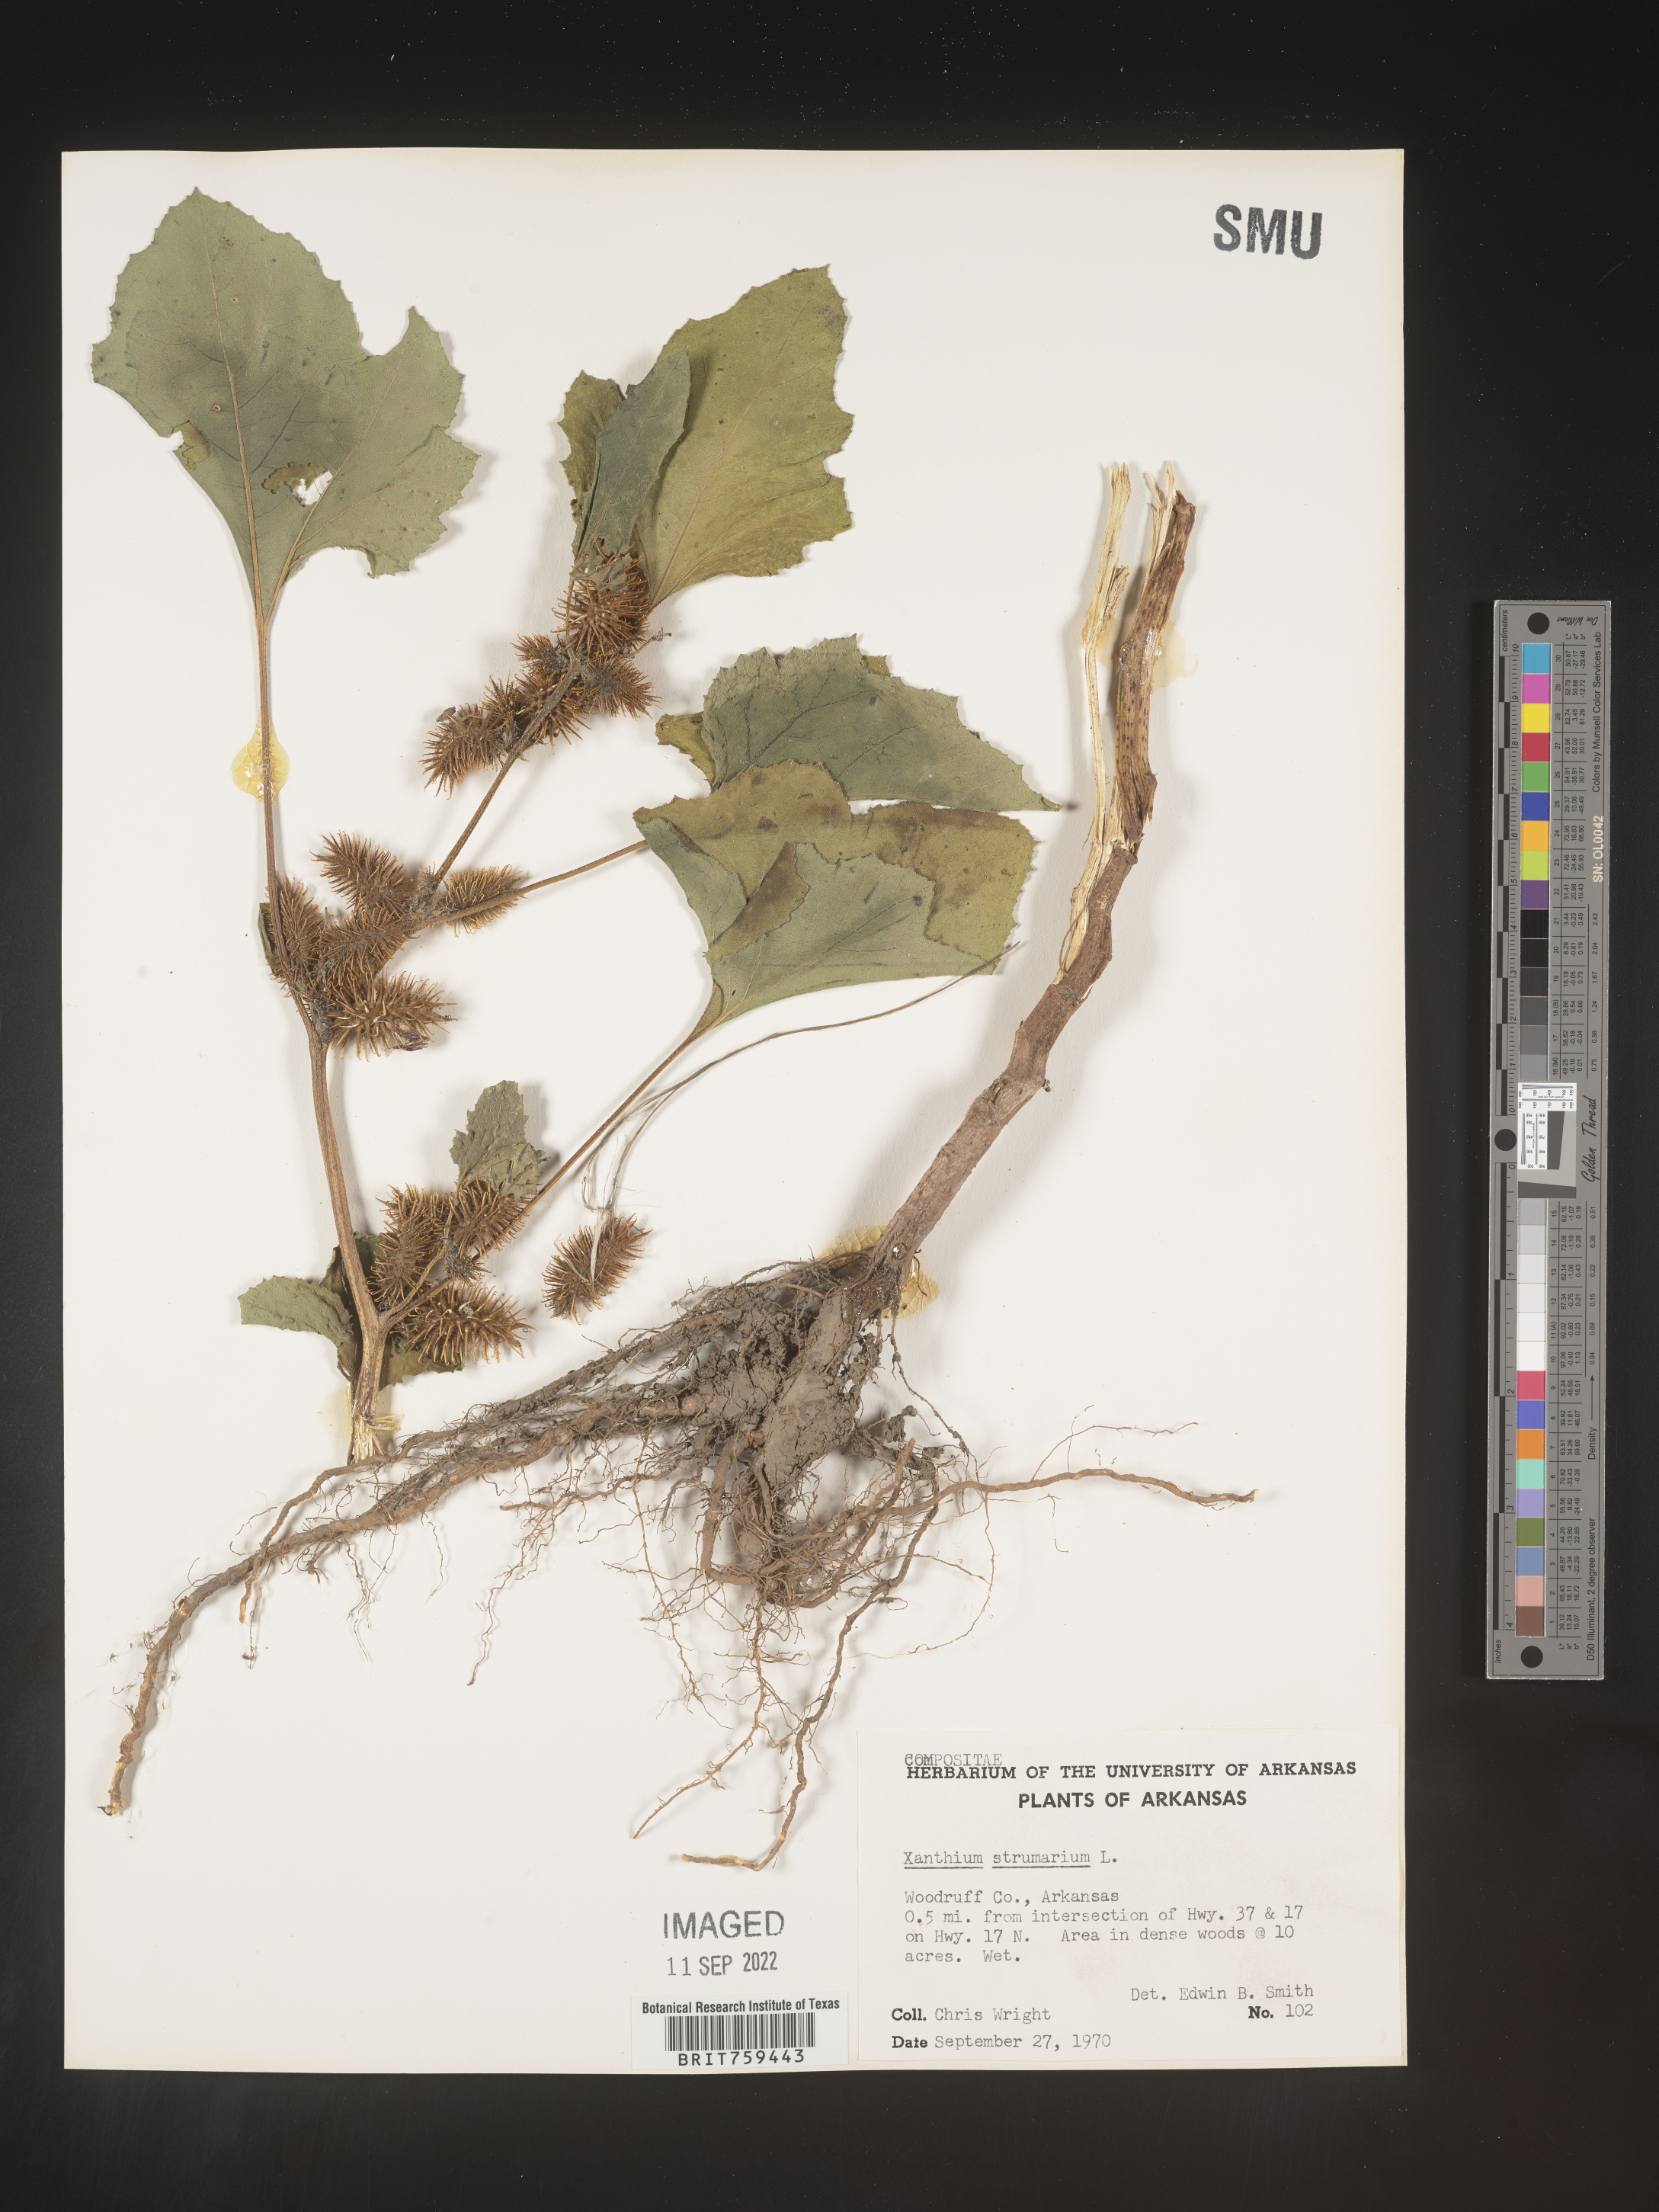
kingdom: Plantae
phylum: Tracheophyta
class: Magnoliopsida
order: Asterales
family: Asteraceae
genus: Xanthium
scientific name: Xanthium strumarium
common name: Rough cocklebur
